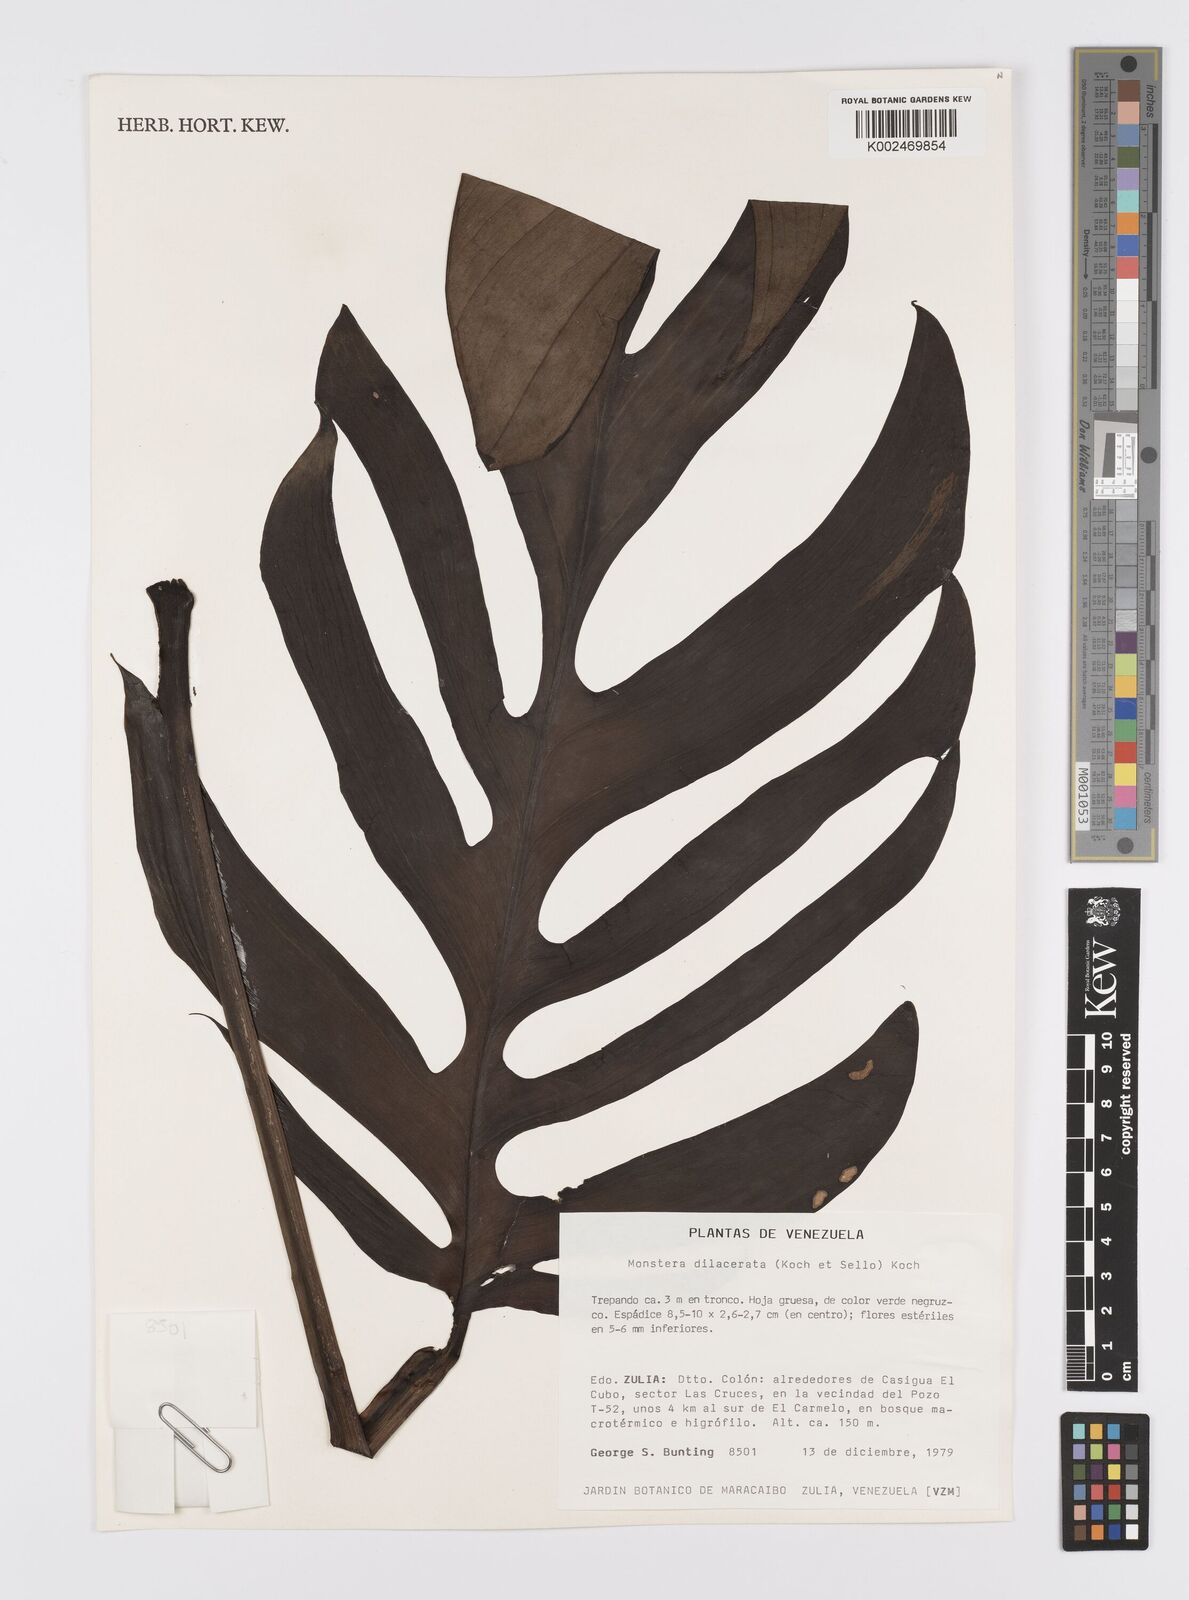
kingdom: Plantae
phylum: Tracheophyta
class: Liliopsida
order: Alismatales
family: Araceae
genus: Monstera
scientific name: Monstera pinnatipartita
